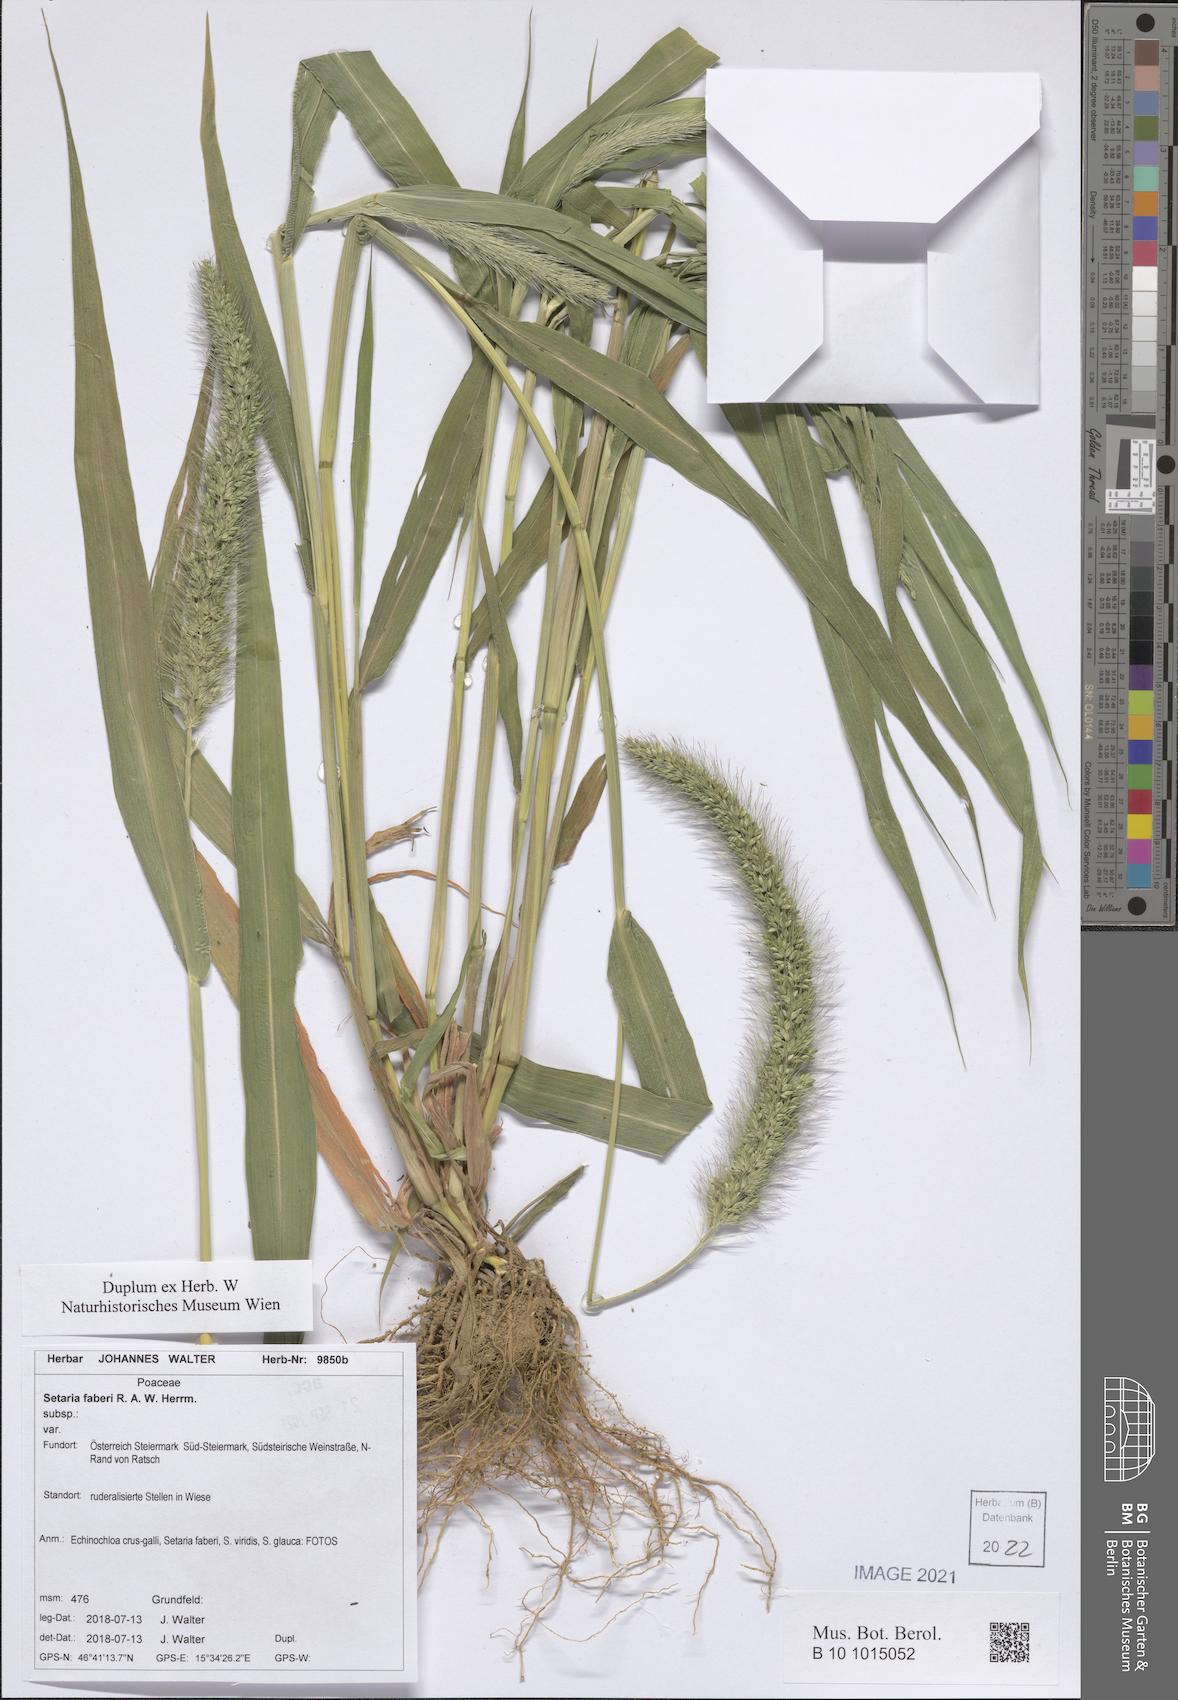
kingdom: Plantae
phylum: Tracheophyta
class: Liliopsida
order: Poales
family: Poaceae
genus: Setaria
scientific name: Setaria faberi
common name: Nodding bristle-grass
